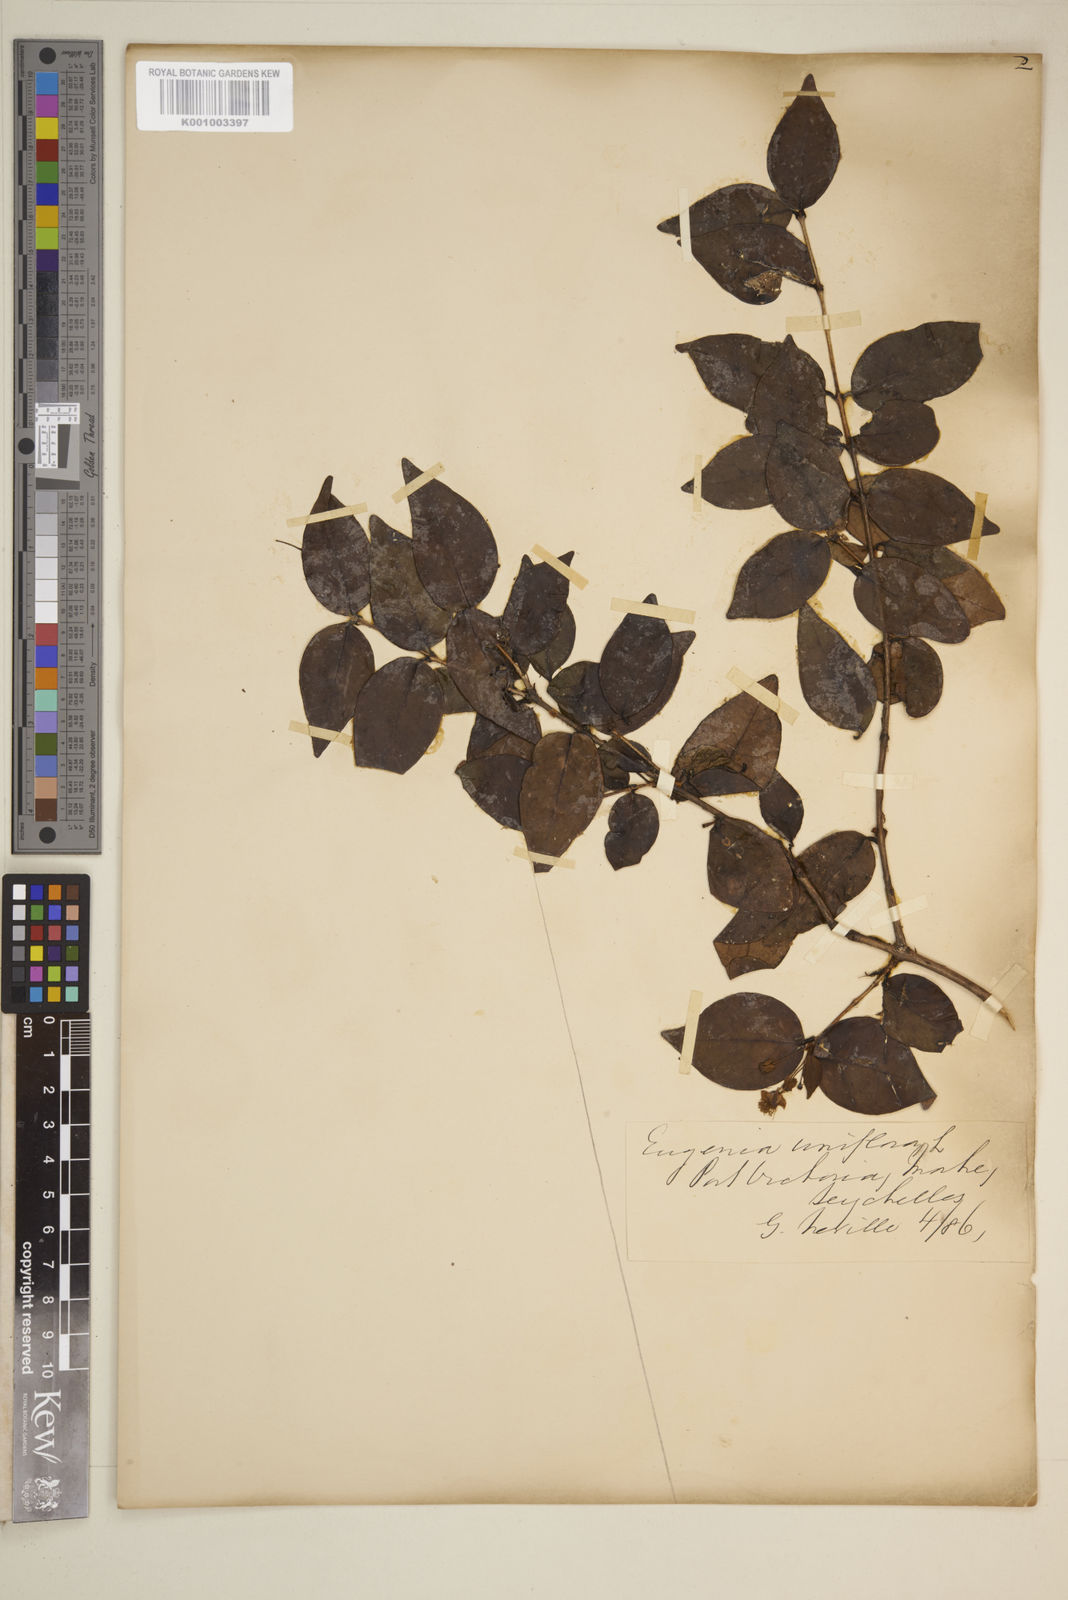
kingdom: Plantae
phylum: Tracheophyta
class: Magnoliopsida
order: Myrtales
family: Myrtaceae
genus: Eugenia
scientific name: Eugenia uniflora
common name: Surinam cherry
